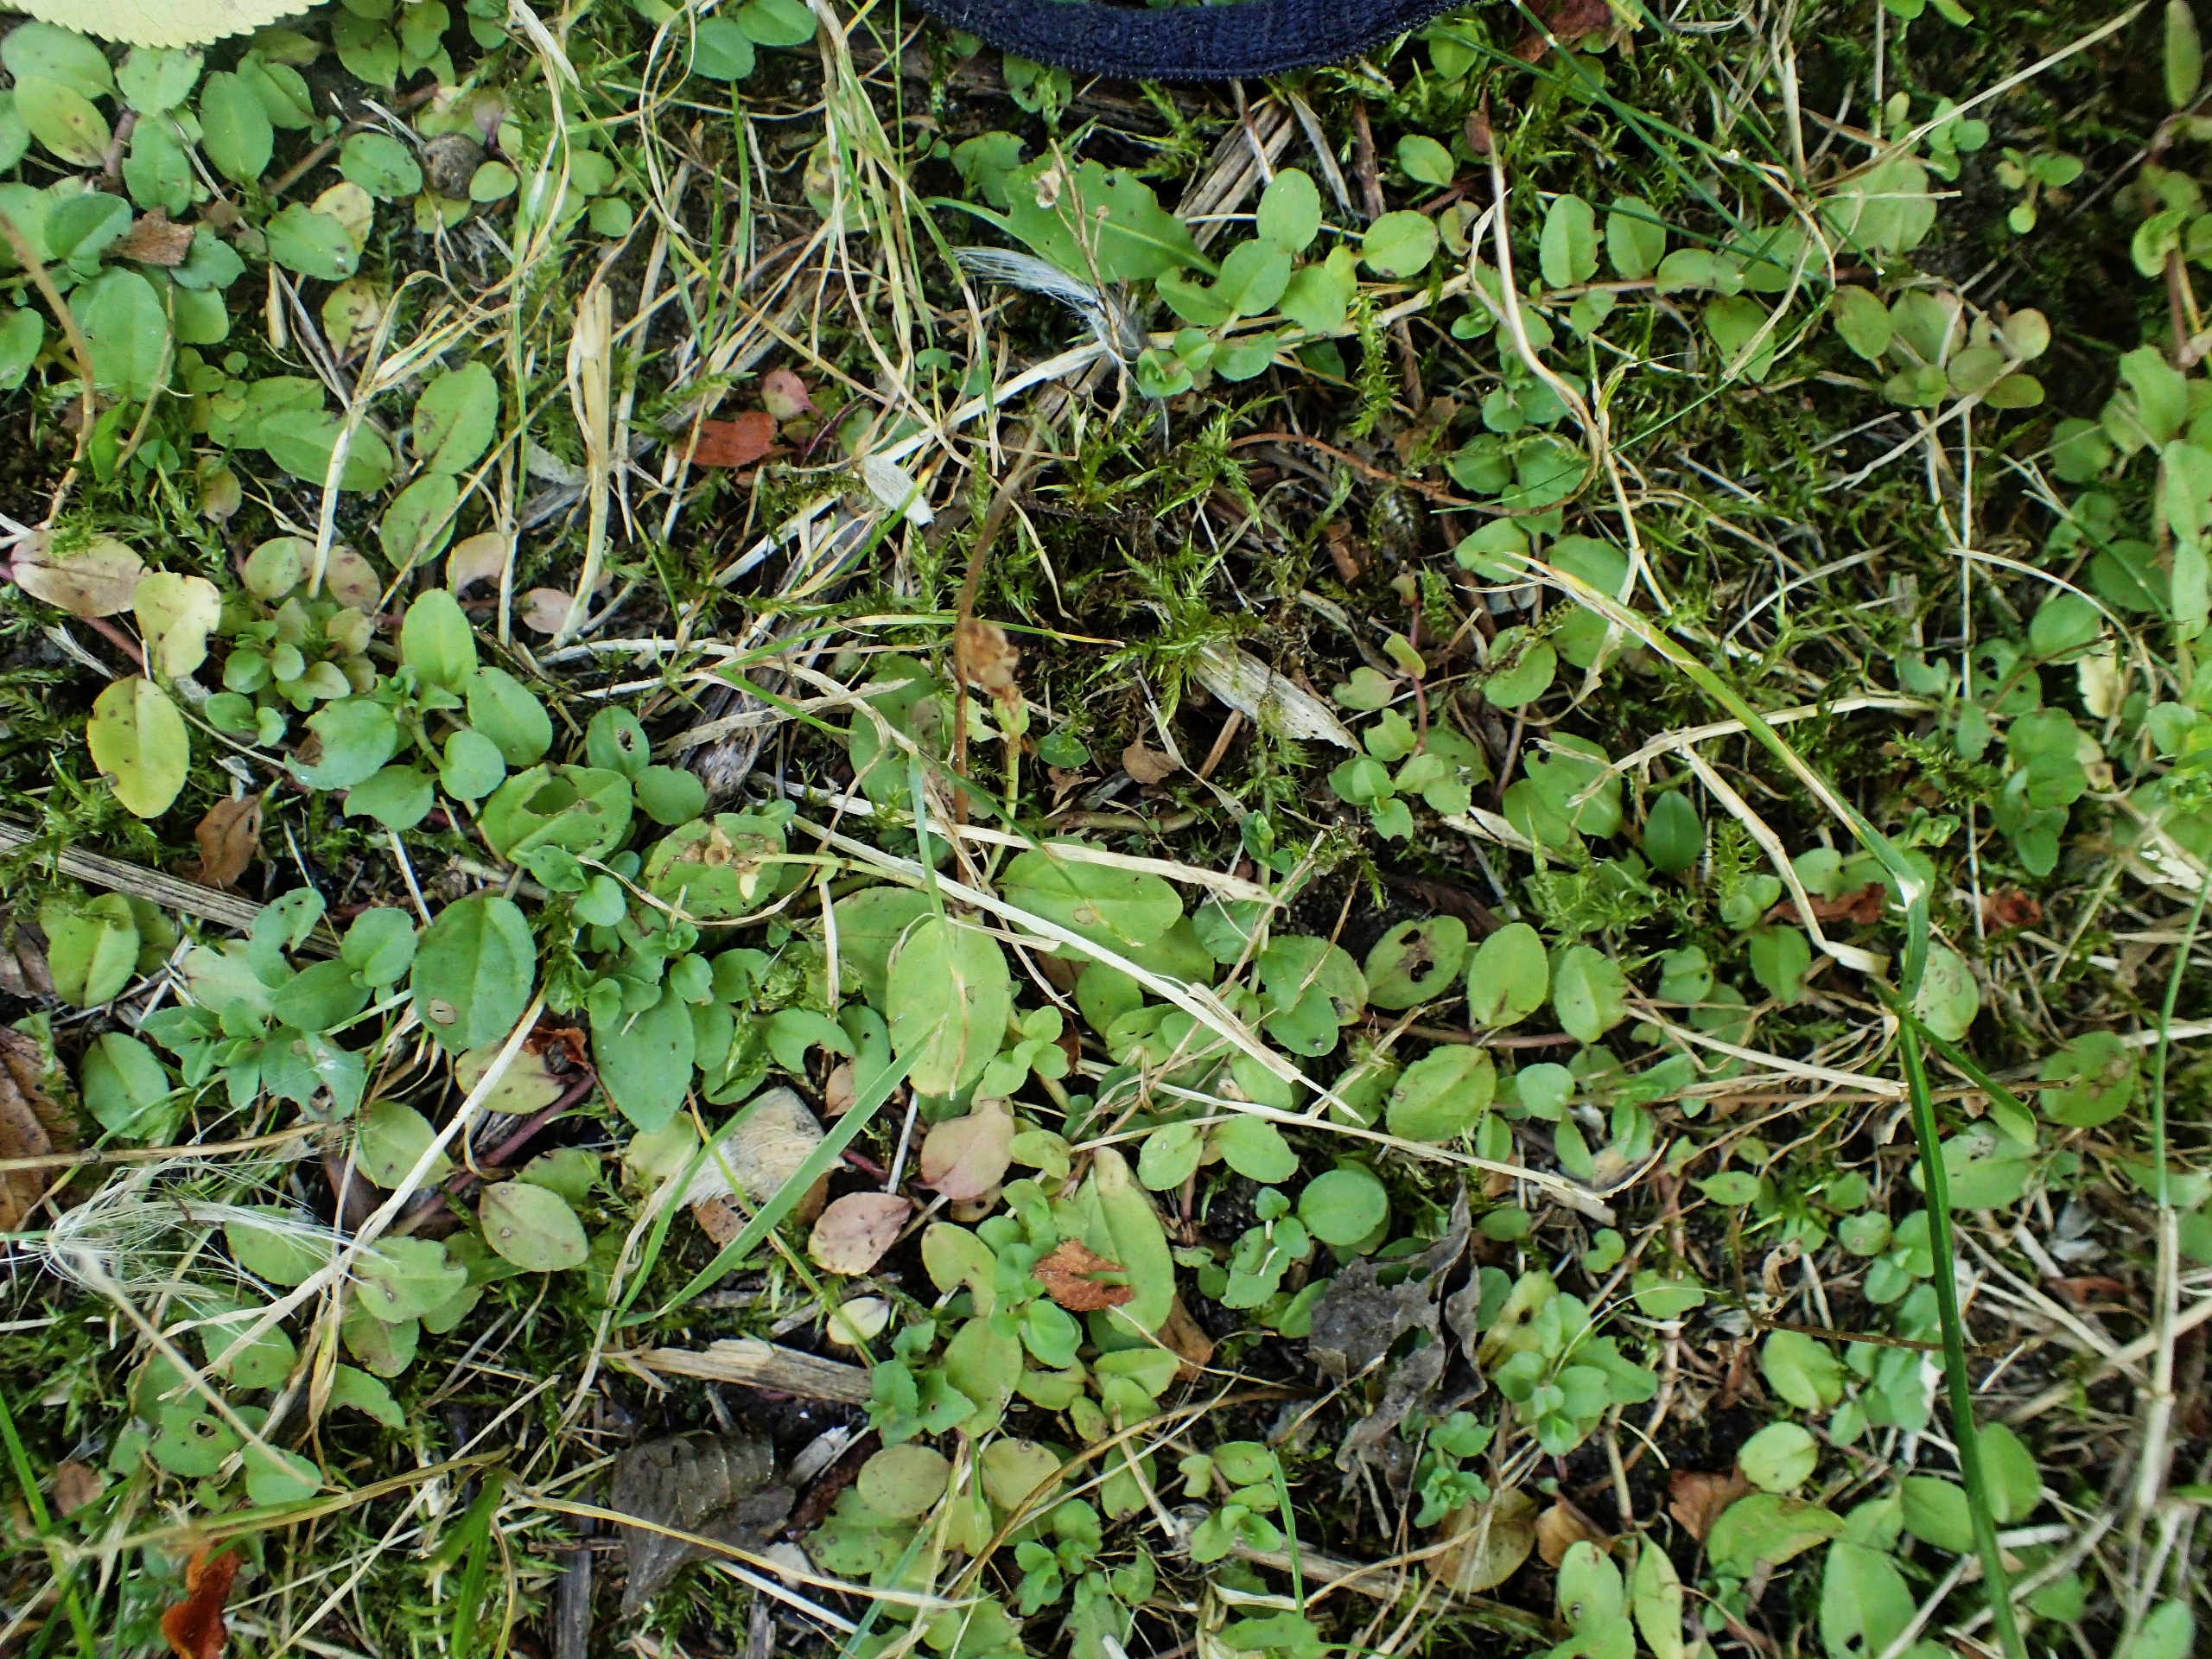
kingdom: Plantae
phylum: Tracheophyta
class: Magnoliopsida
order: Lamiales
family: Plantaginaceae
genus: Veronica
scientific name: Veronica serpyllifolia
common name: Glat ærenpris
